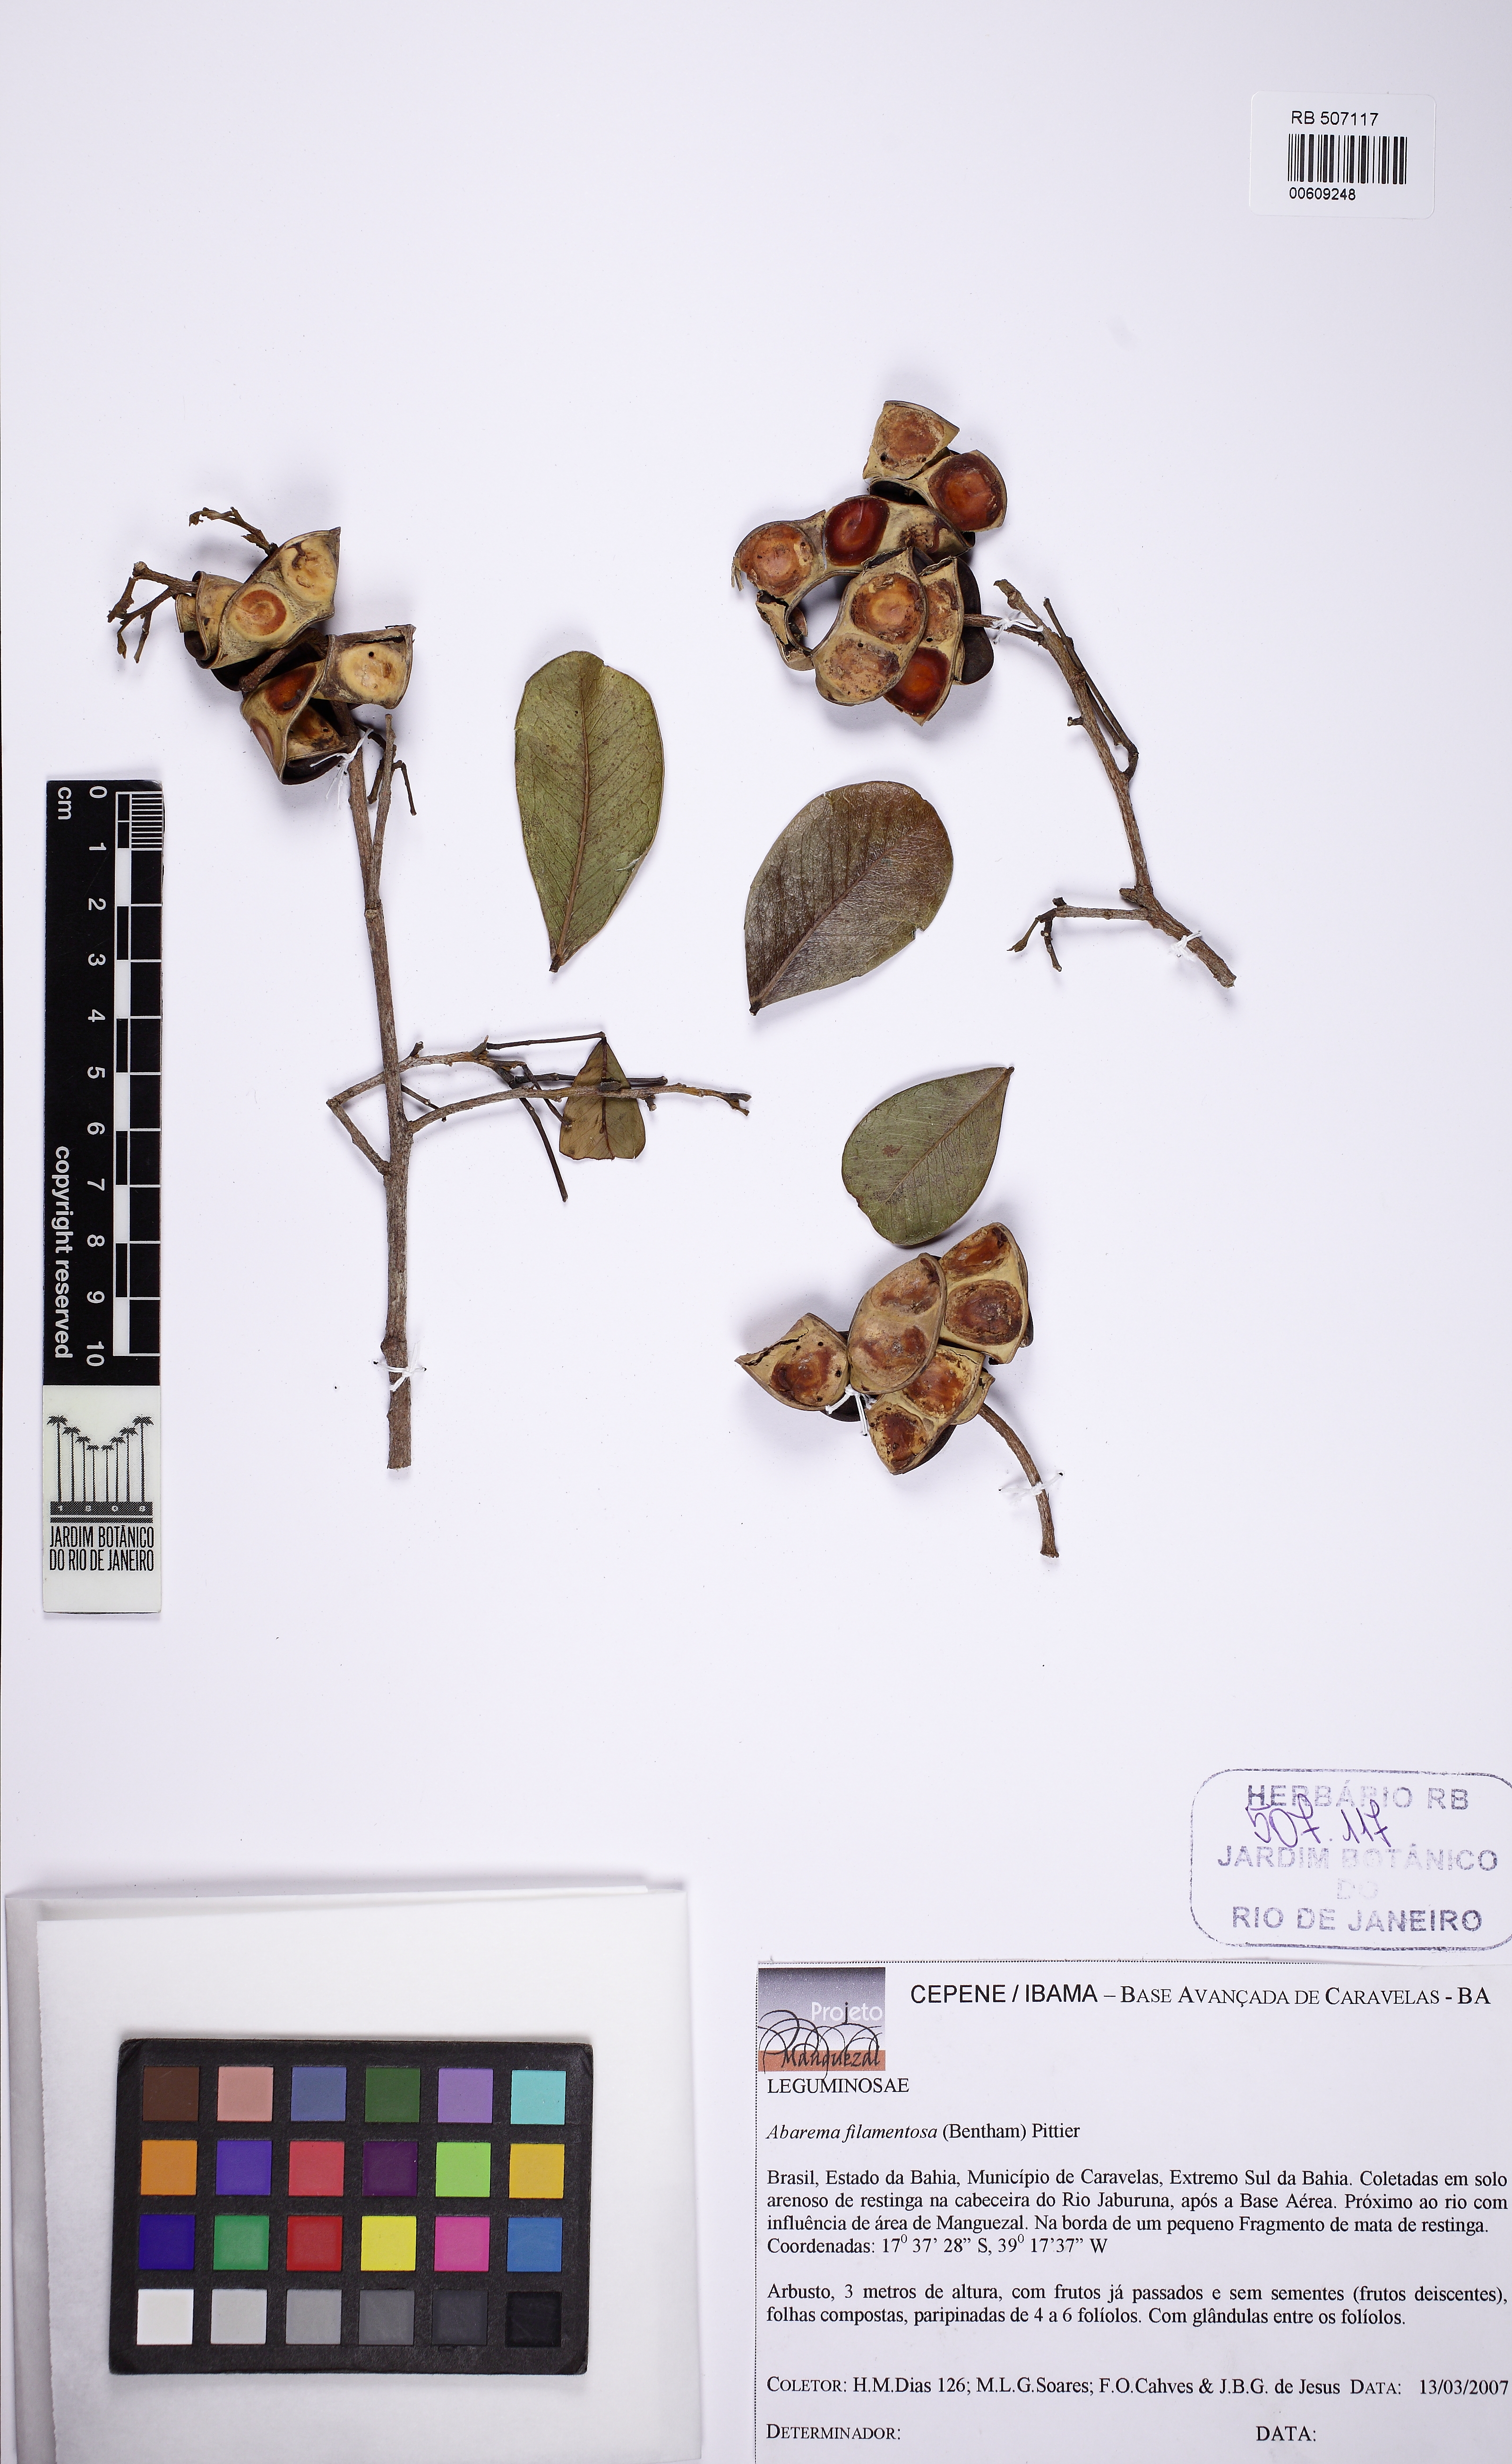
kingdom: Plantae
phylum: Tracheophyta
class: Magnoliopsida
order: Fabales
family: Fabaceae
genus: Jupunba
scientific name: Jupunba filamentosa
